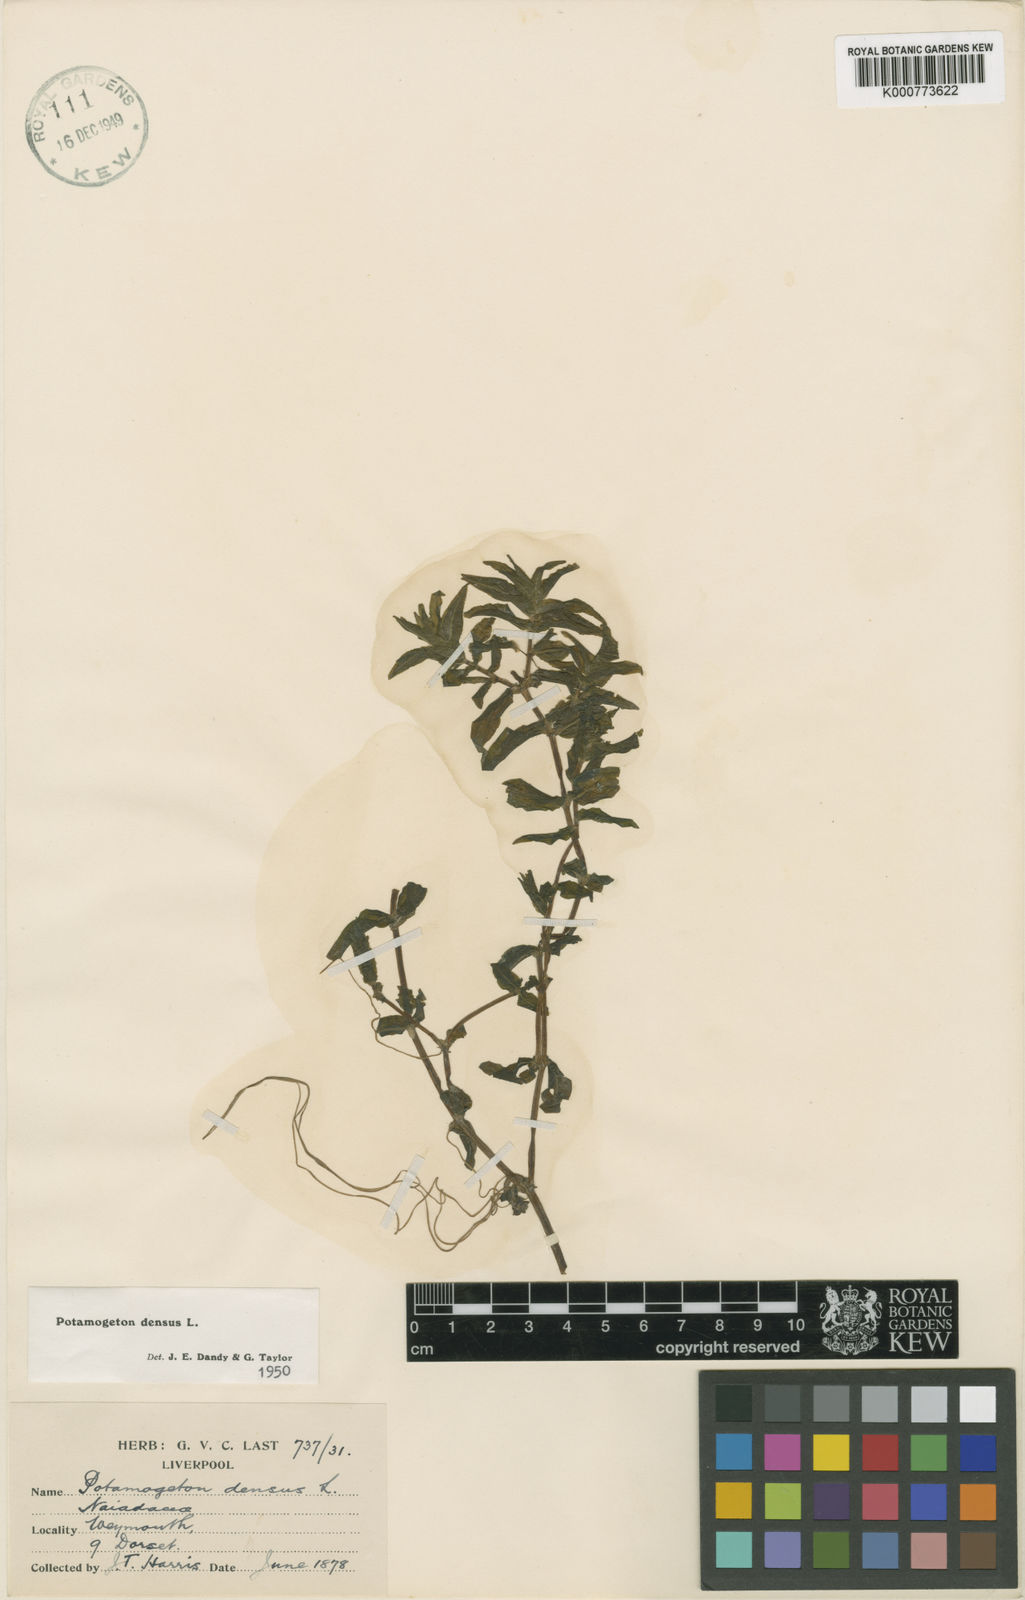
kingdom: Plantae
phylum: Tracheophyta
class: Liliopsida
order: Alismatales
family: Potamogetonaceae
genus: Groenlandia
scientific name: Groenlandia densa
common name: Opposite-leaved pondweed
